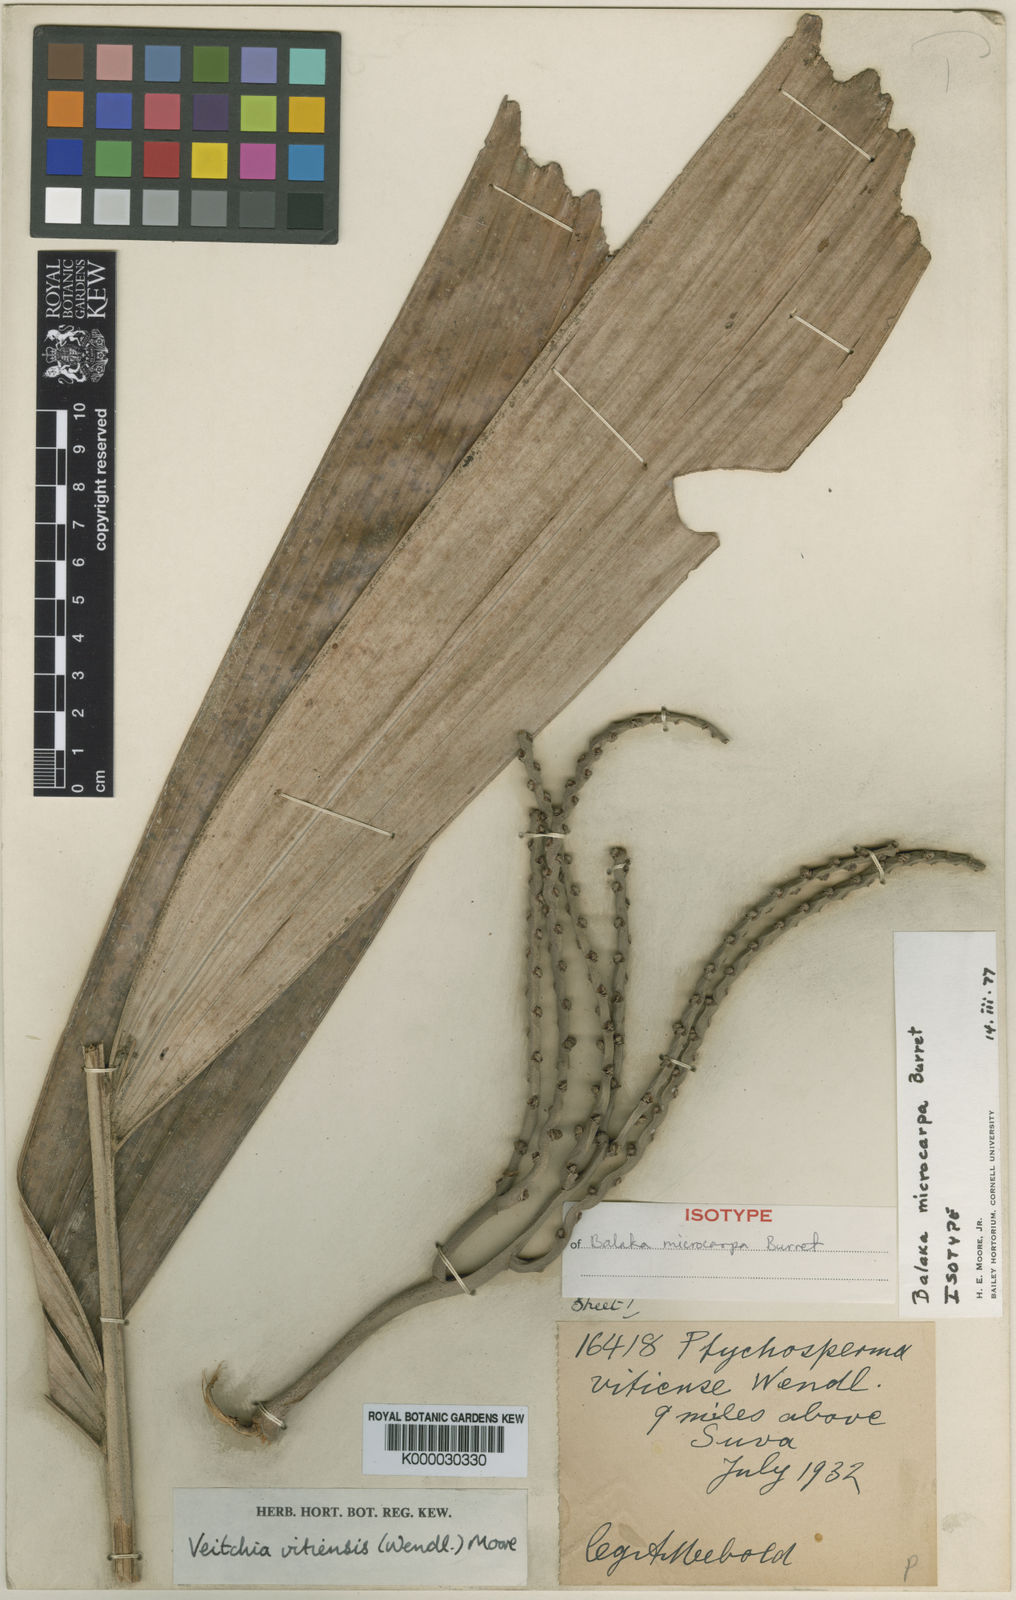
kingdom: Plantae
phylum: Tracheophyta
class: Liliopsida
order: Arecales
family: Arecaceae
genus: Balaka
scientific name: Balaka samoensis
